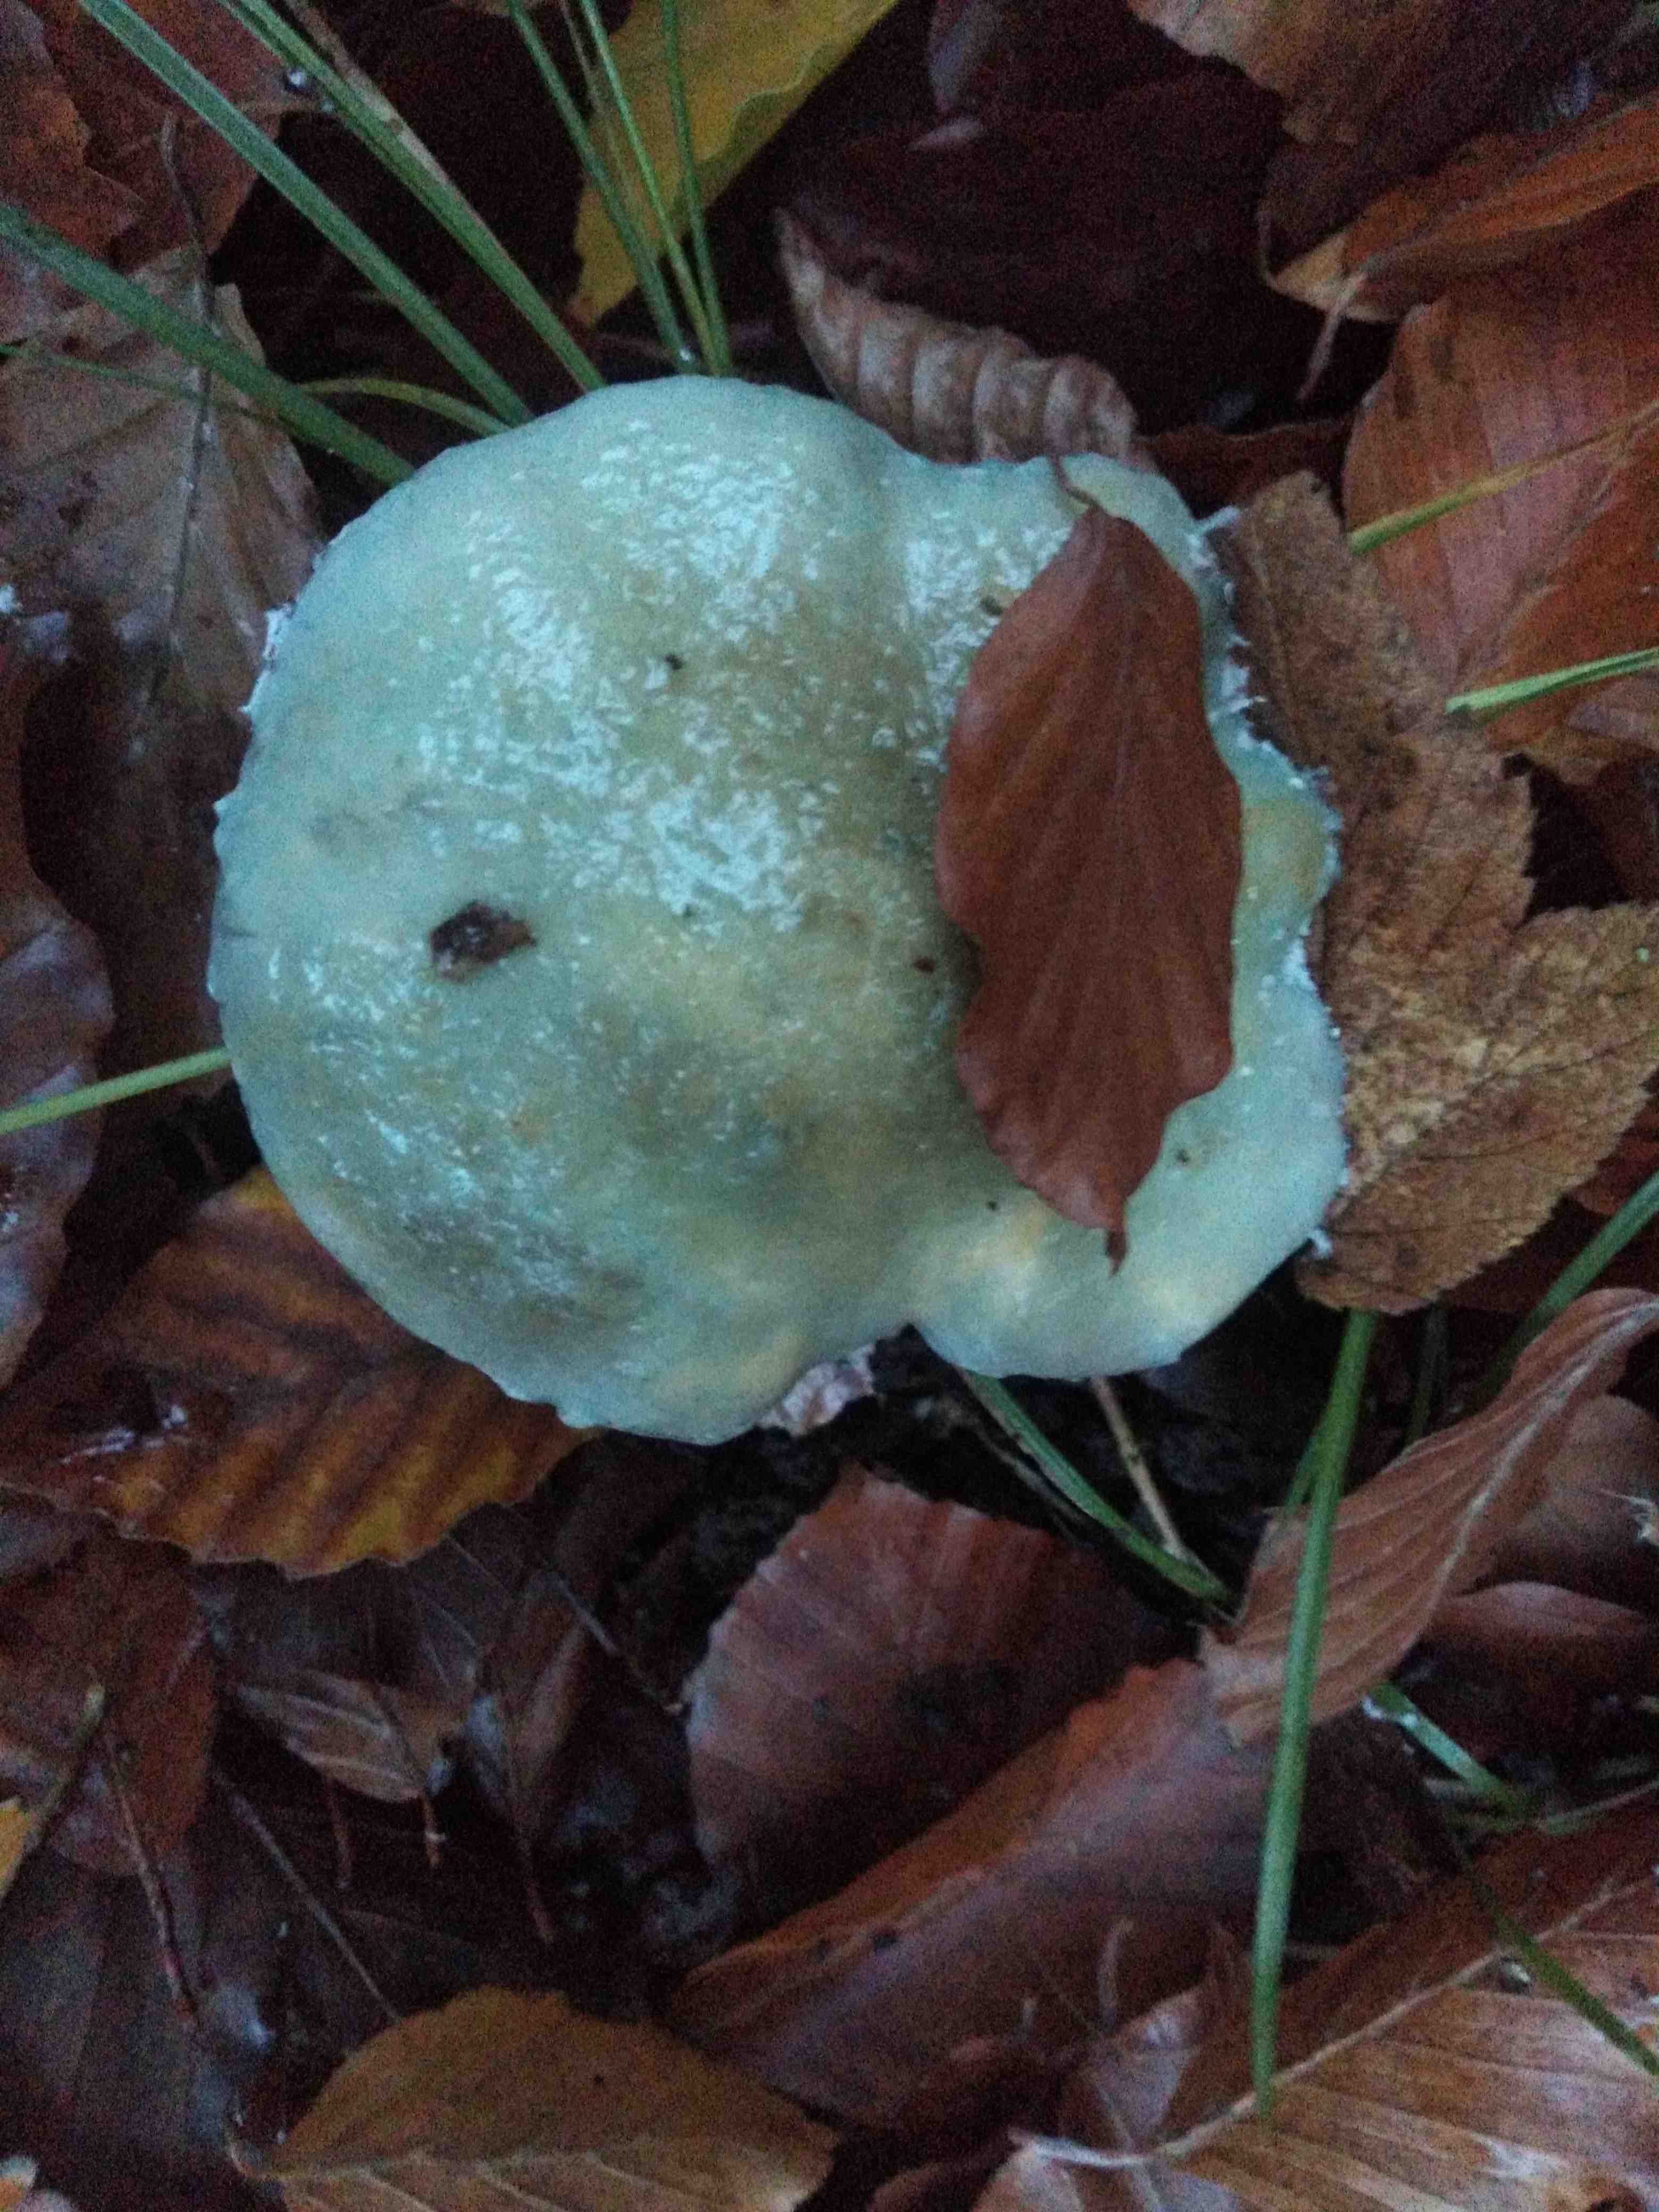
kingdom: Fungi
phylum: Basidiomycota
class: Agaricomycetes
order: Agaricales
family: Strophariaceae
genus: Stropharia
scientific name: Stropharia cyanea
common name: blågrøn bredblad
